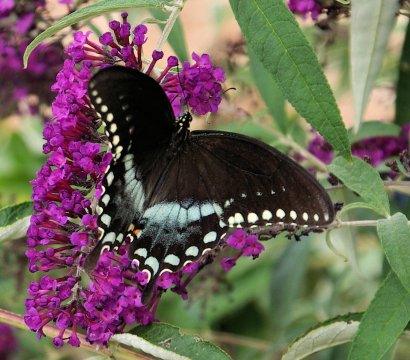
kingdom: Animalia
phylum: Arthropoda
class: Insecta
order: Lepidoptera
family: Papilionidae
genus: Pterourus
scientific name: Pterourus troilus
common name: Spicebush Swallowtail
